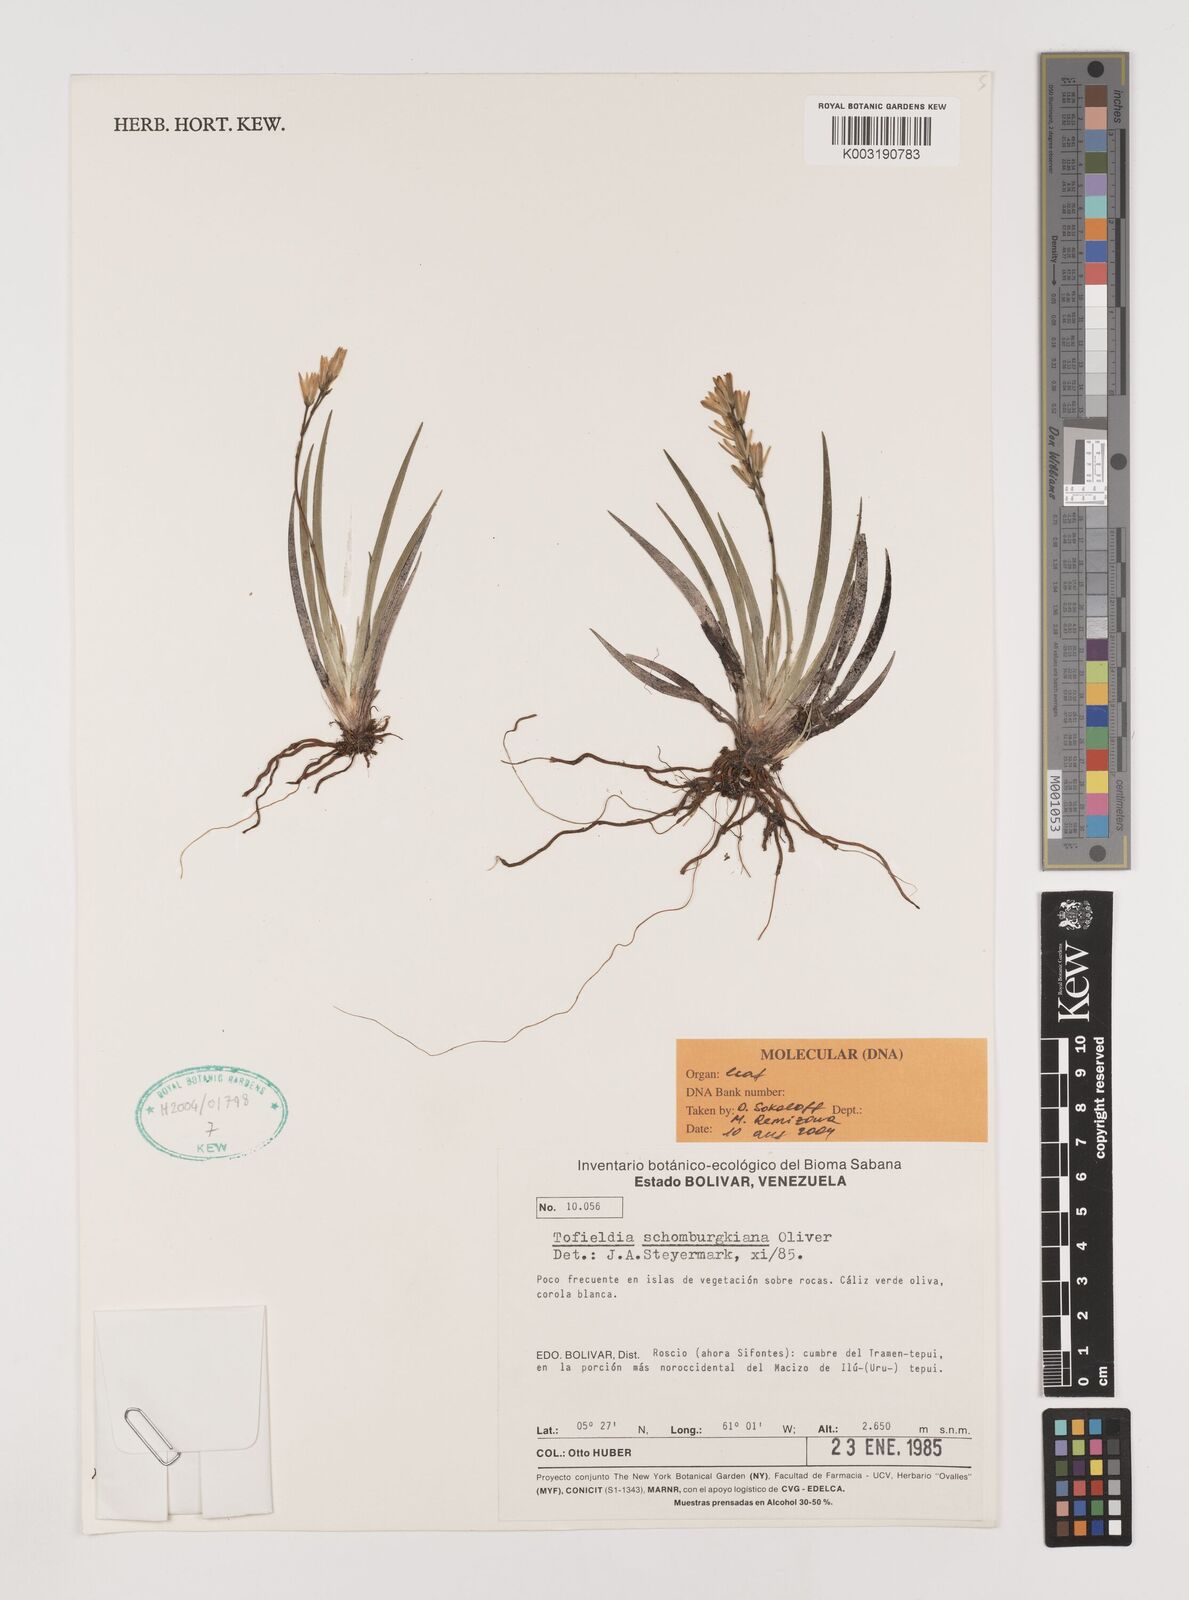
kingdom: Plantae
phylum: Tracheophyta
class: Liliopsida
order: Alismatales
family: Tofieldiaceae
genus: Harperocallis
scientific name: Harperocallis schomburgkiana
